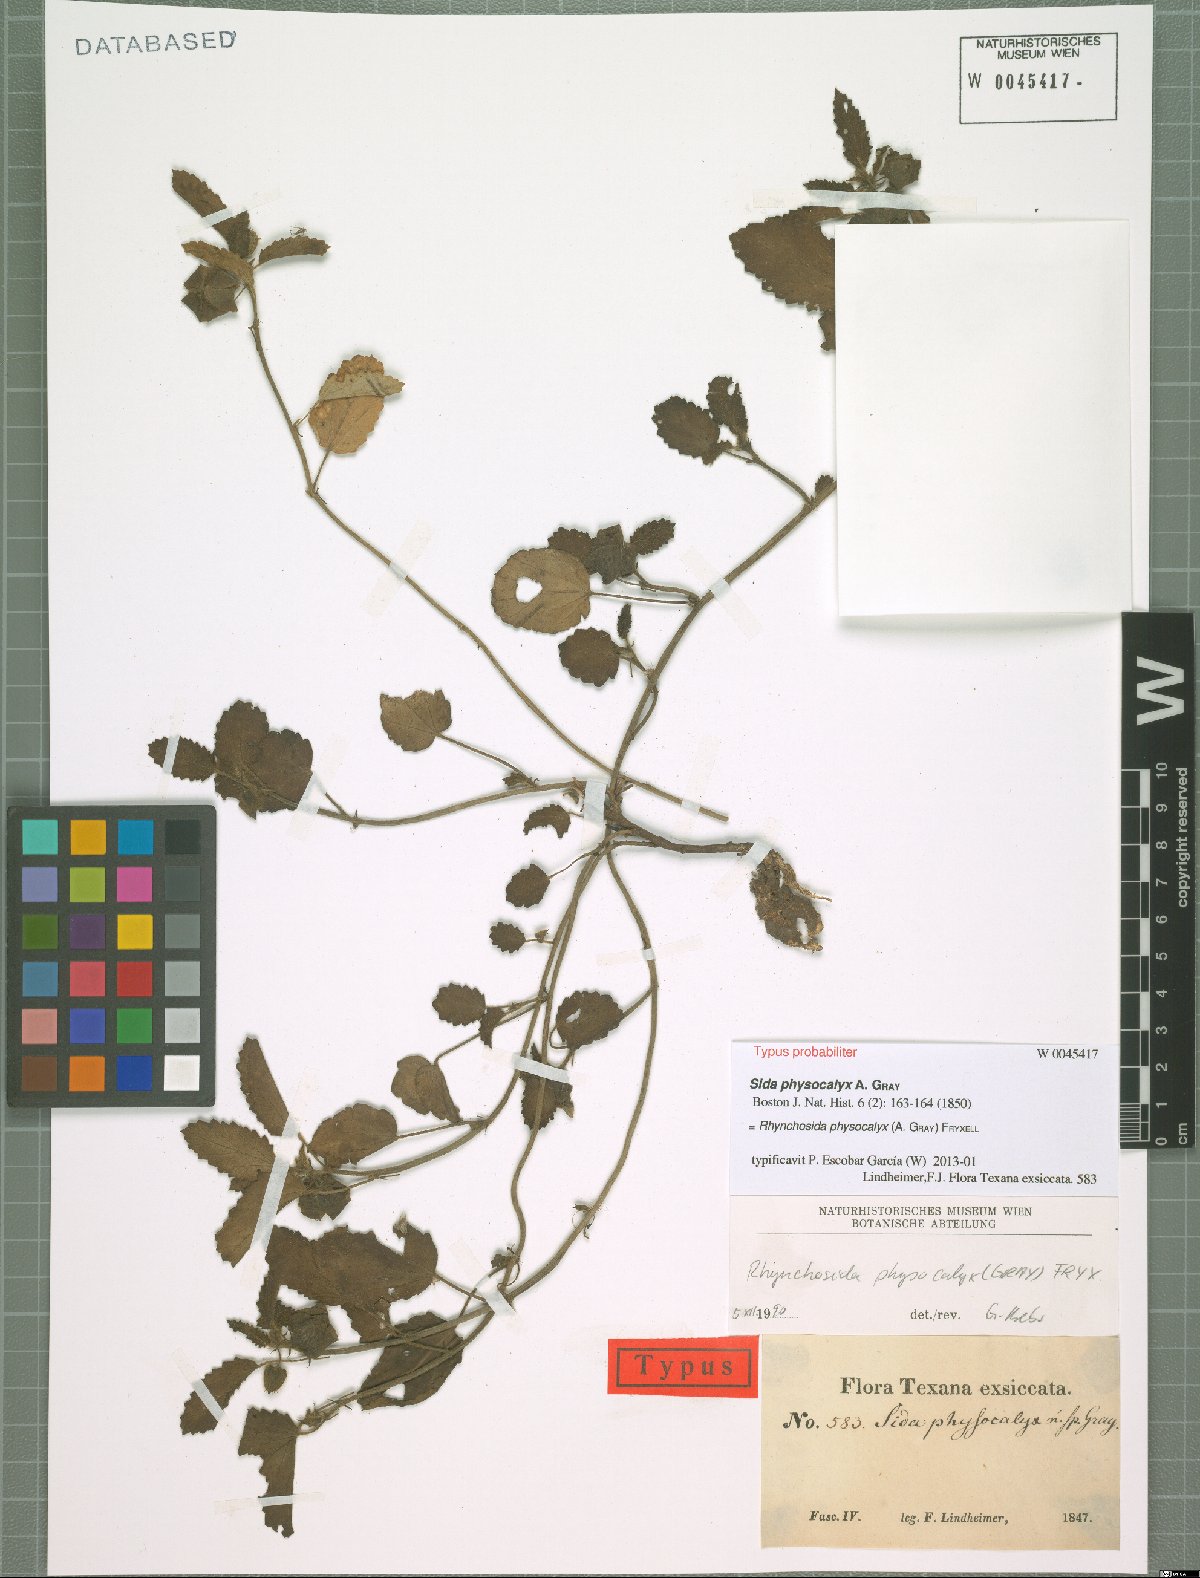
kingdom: Plantae
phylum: Tracheophyta
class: Magnoliopsida
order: Malvales
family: Malvaceae
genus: Rhynchosida
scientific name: Rhynchosida physocalyx
